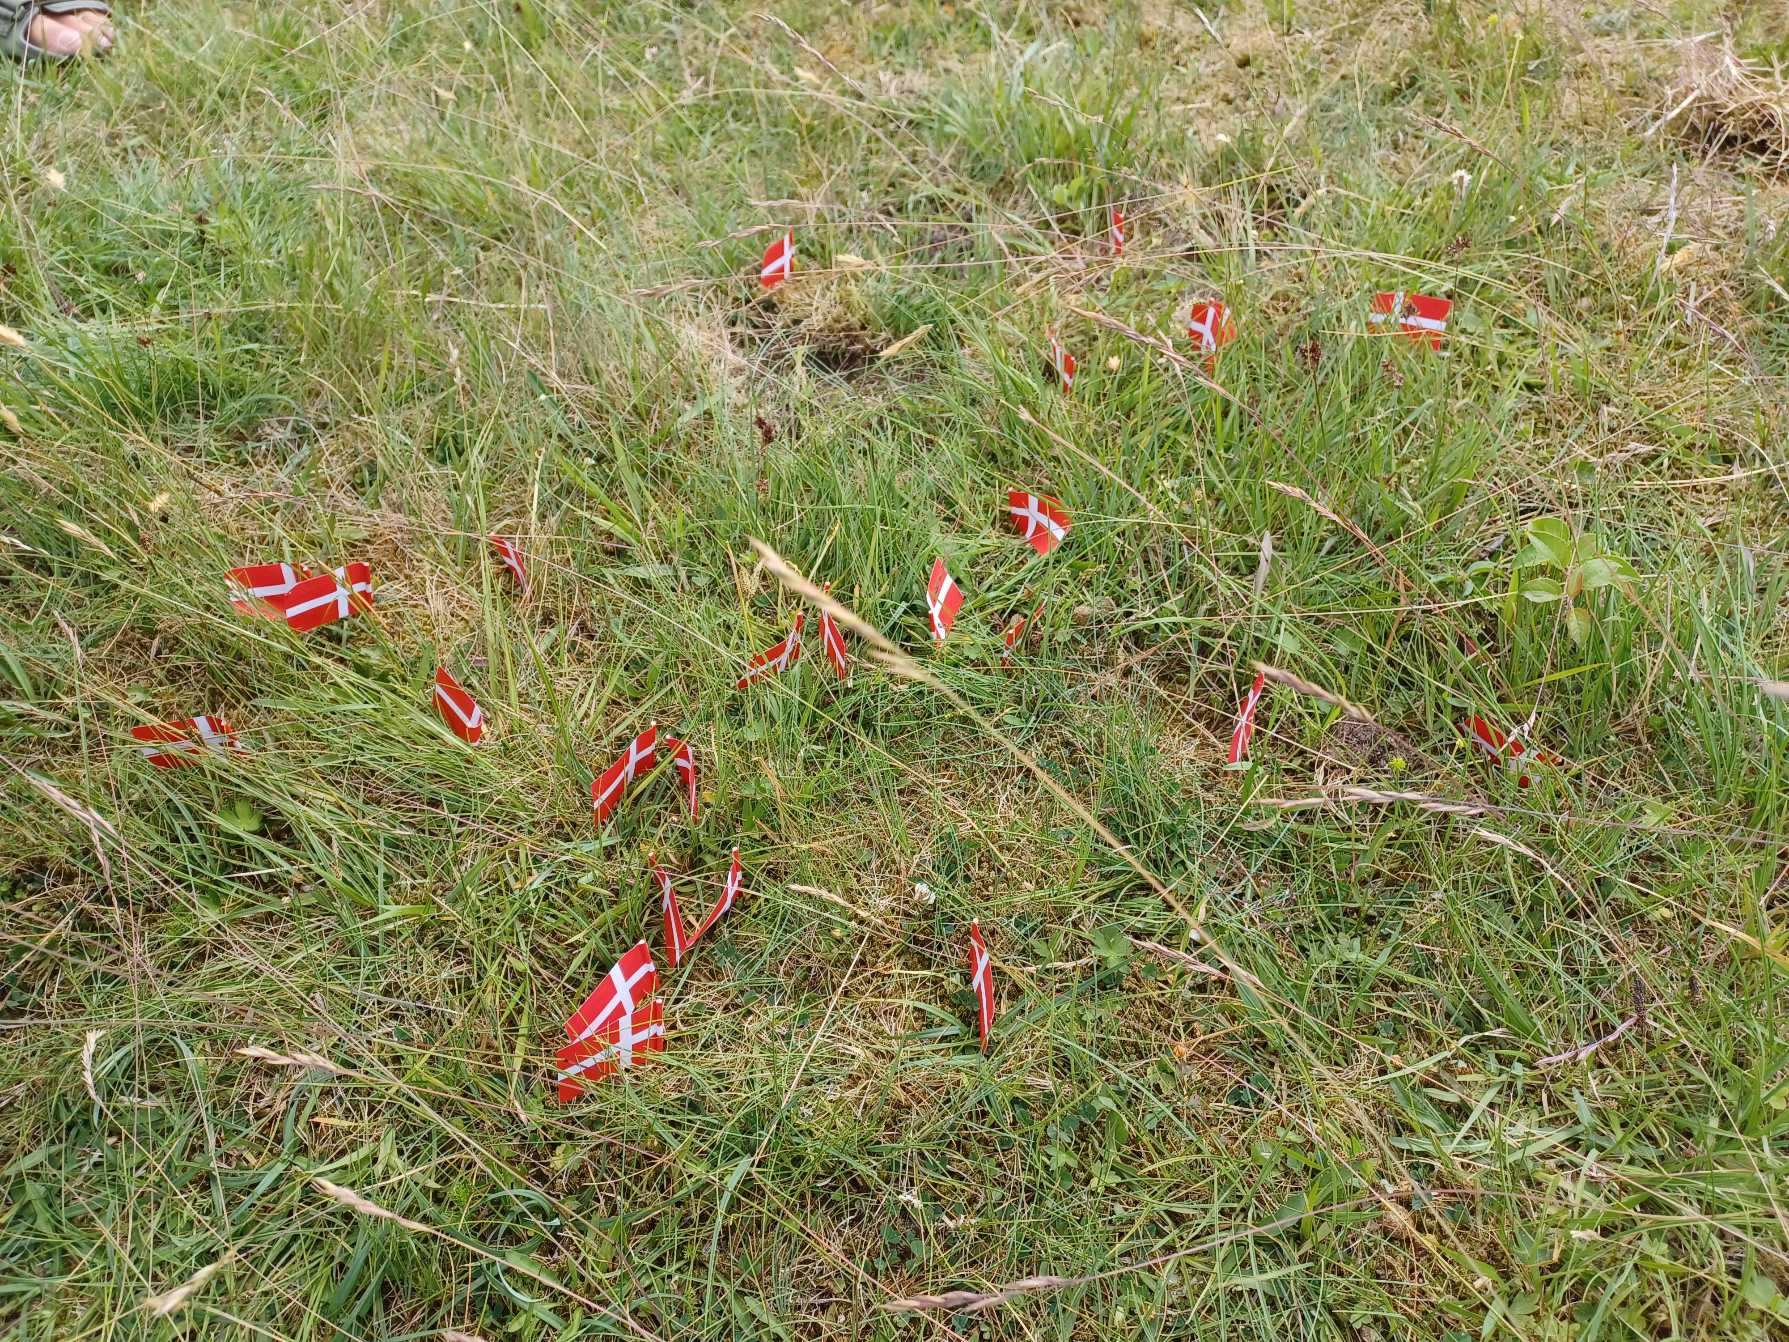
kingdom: Plantae
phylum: Tracheophyta
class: Polypodiopsida
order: Ophioglossales
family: Ophioglossaceae
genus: Botrychium
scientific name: Botrychium simplex
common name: Enkelt månerude
